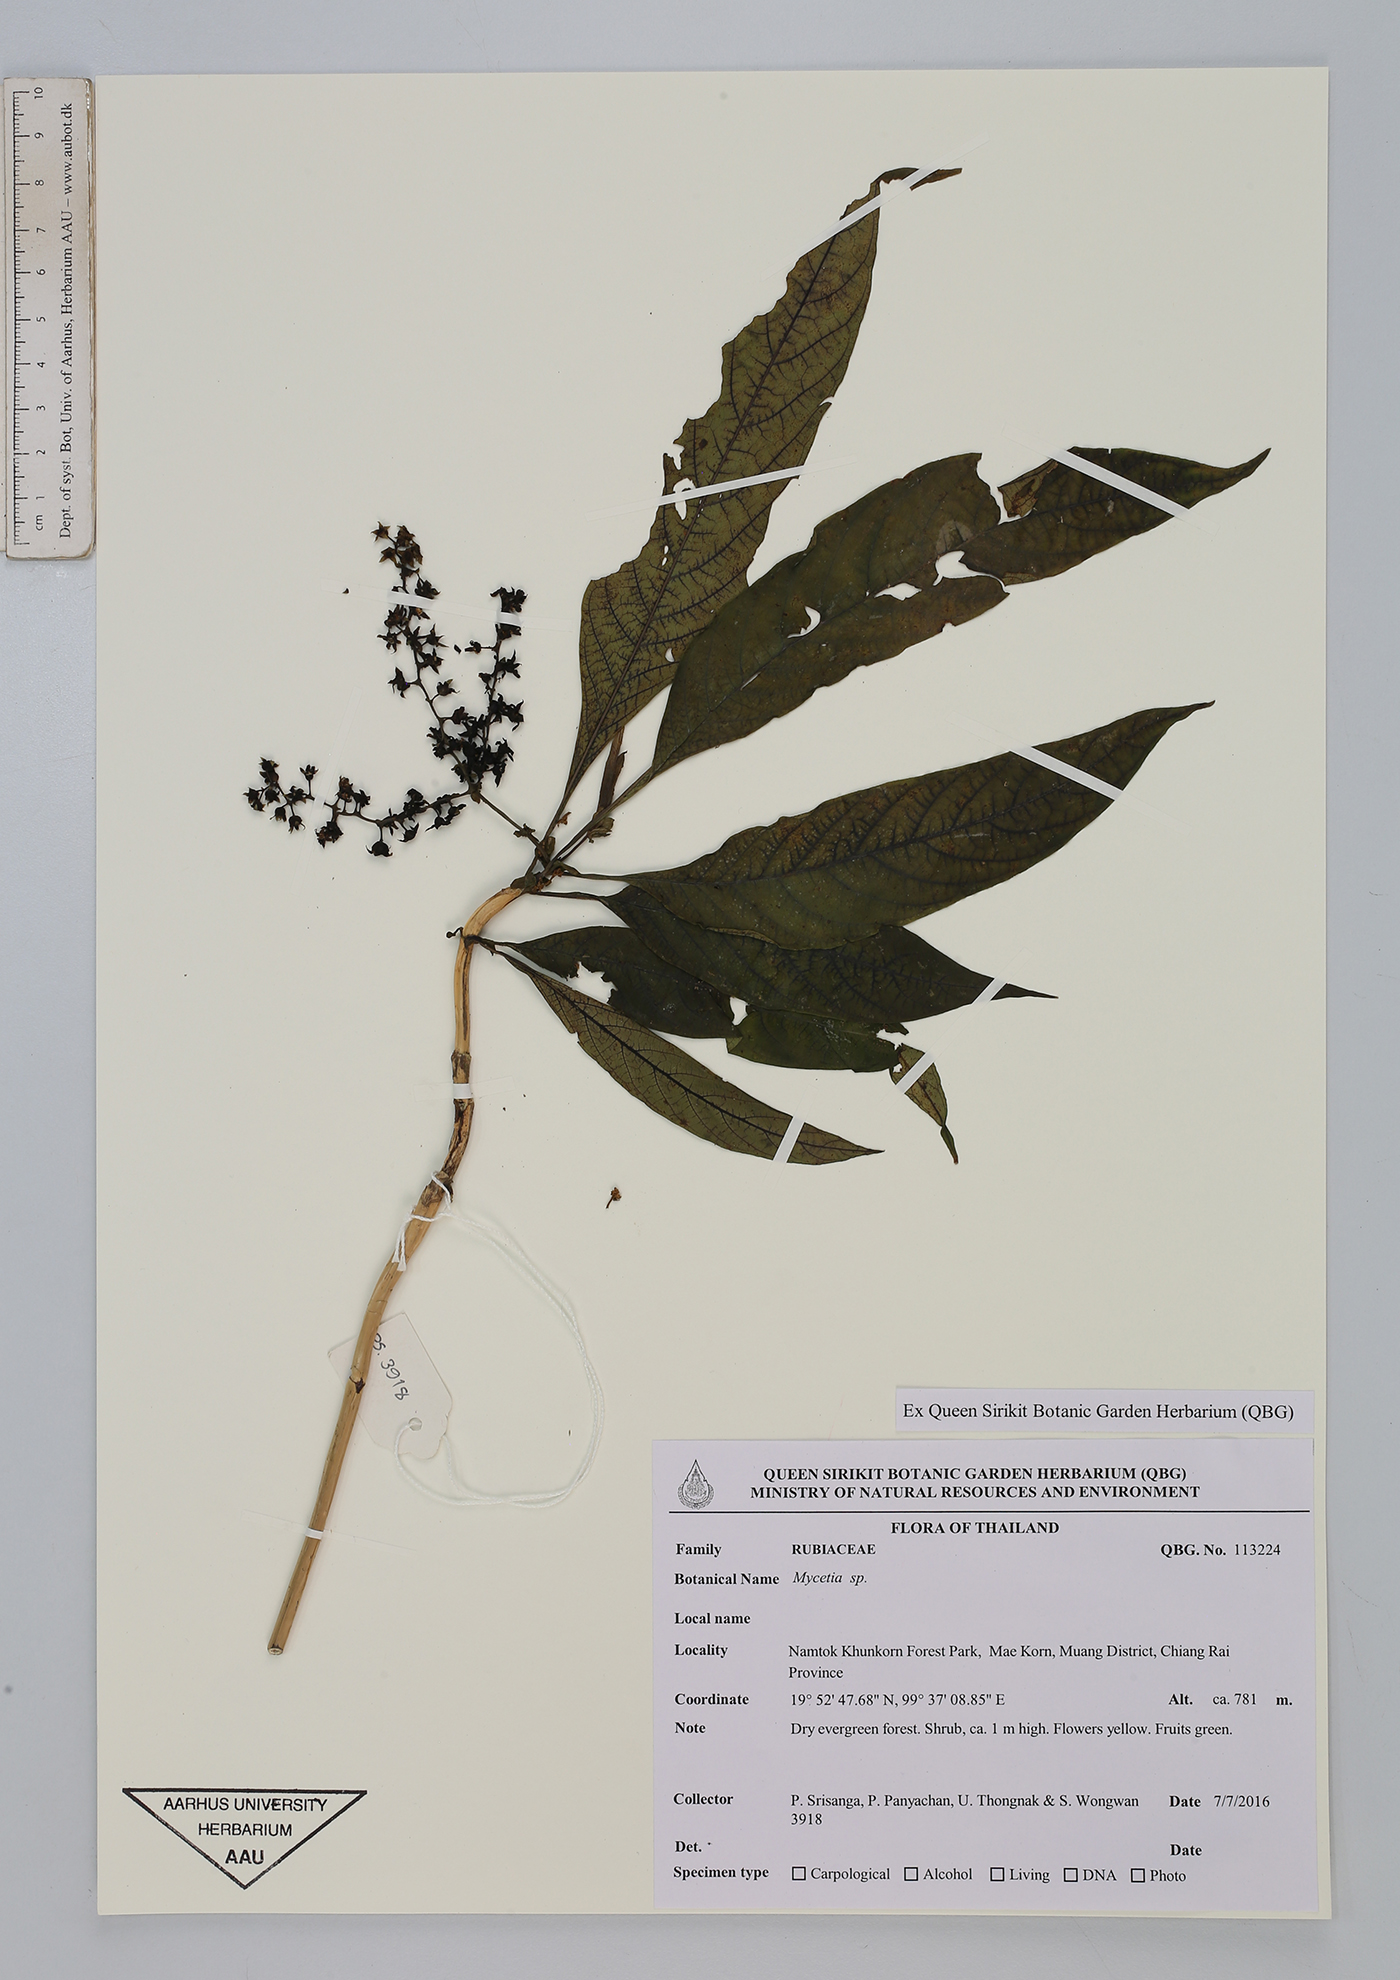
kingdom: Plantae
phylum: Tracheophyta
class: Magnoliopsida
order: Gentianales
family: Rubiaceae
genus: Mycetia
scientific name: Mycetia
